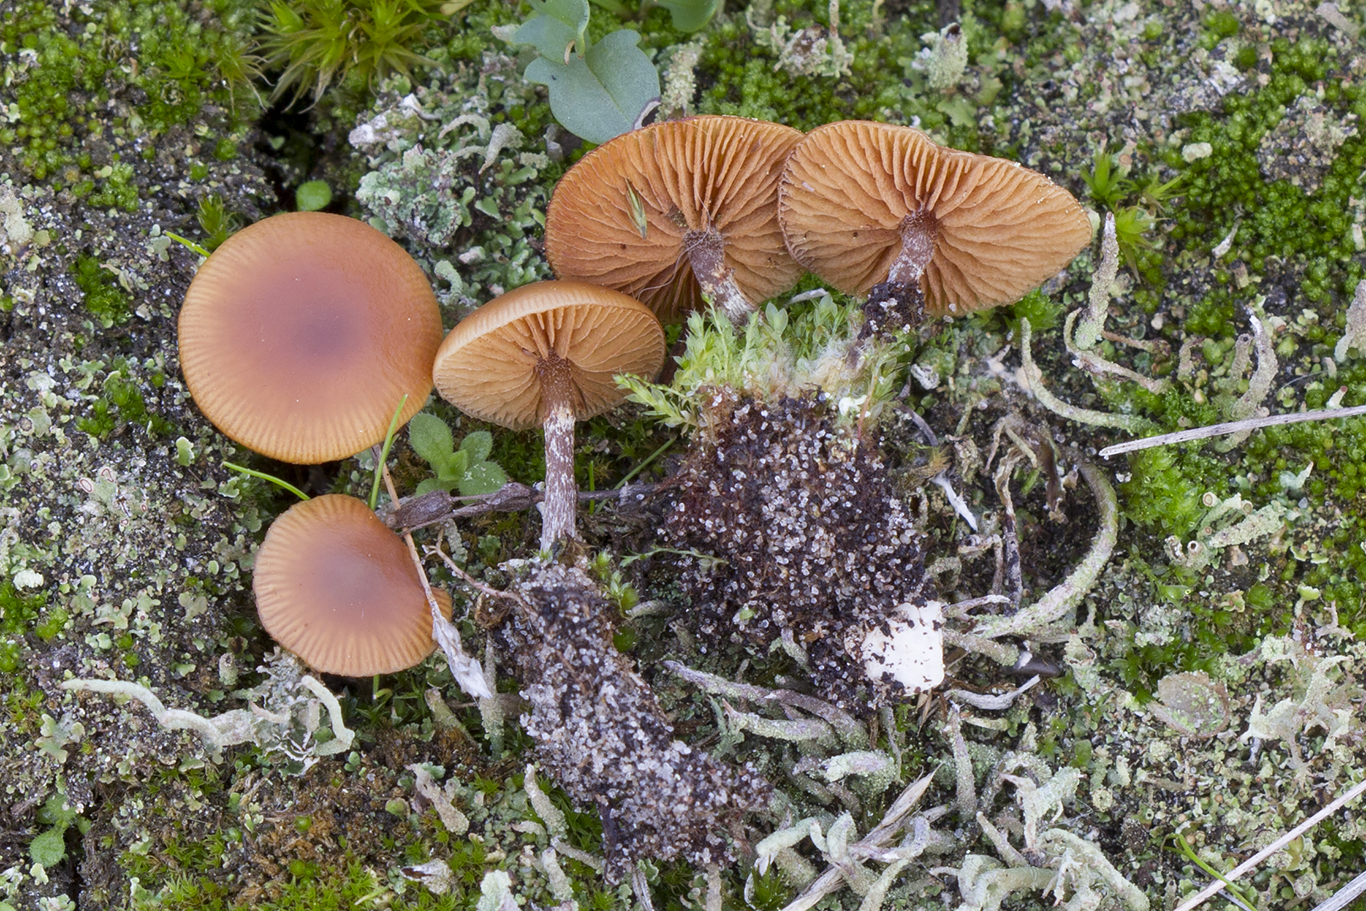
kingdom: Fungi
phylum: Basidiomycota
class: Agaricomycetes
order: Agaricales
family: Hymenogastraceae
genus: Galerina
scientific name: Galerina esteve-raventosii
